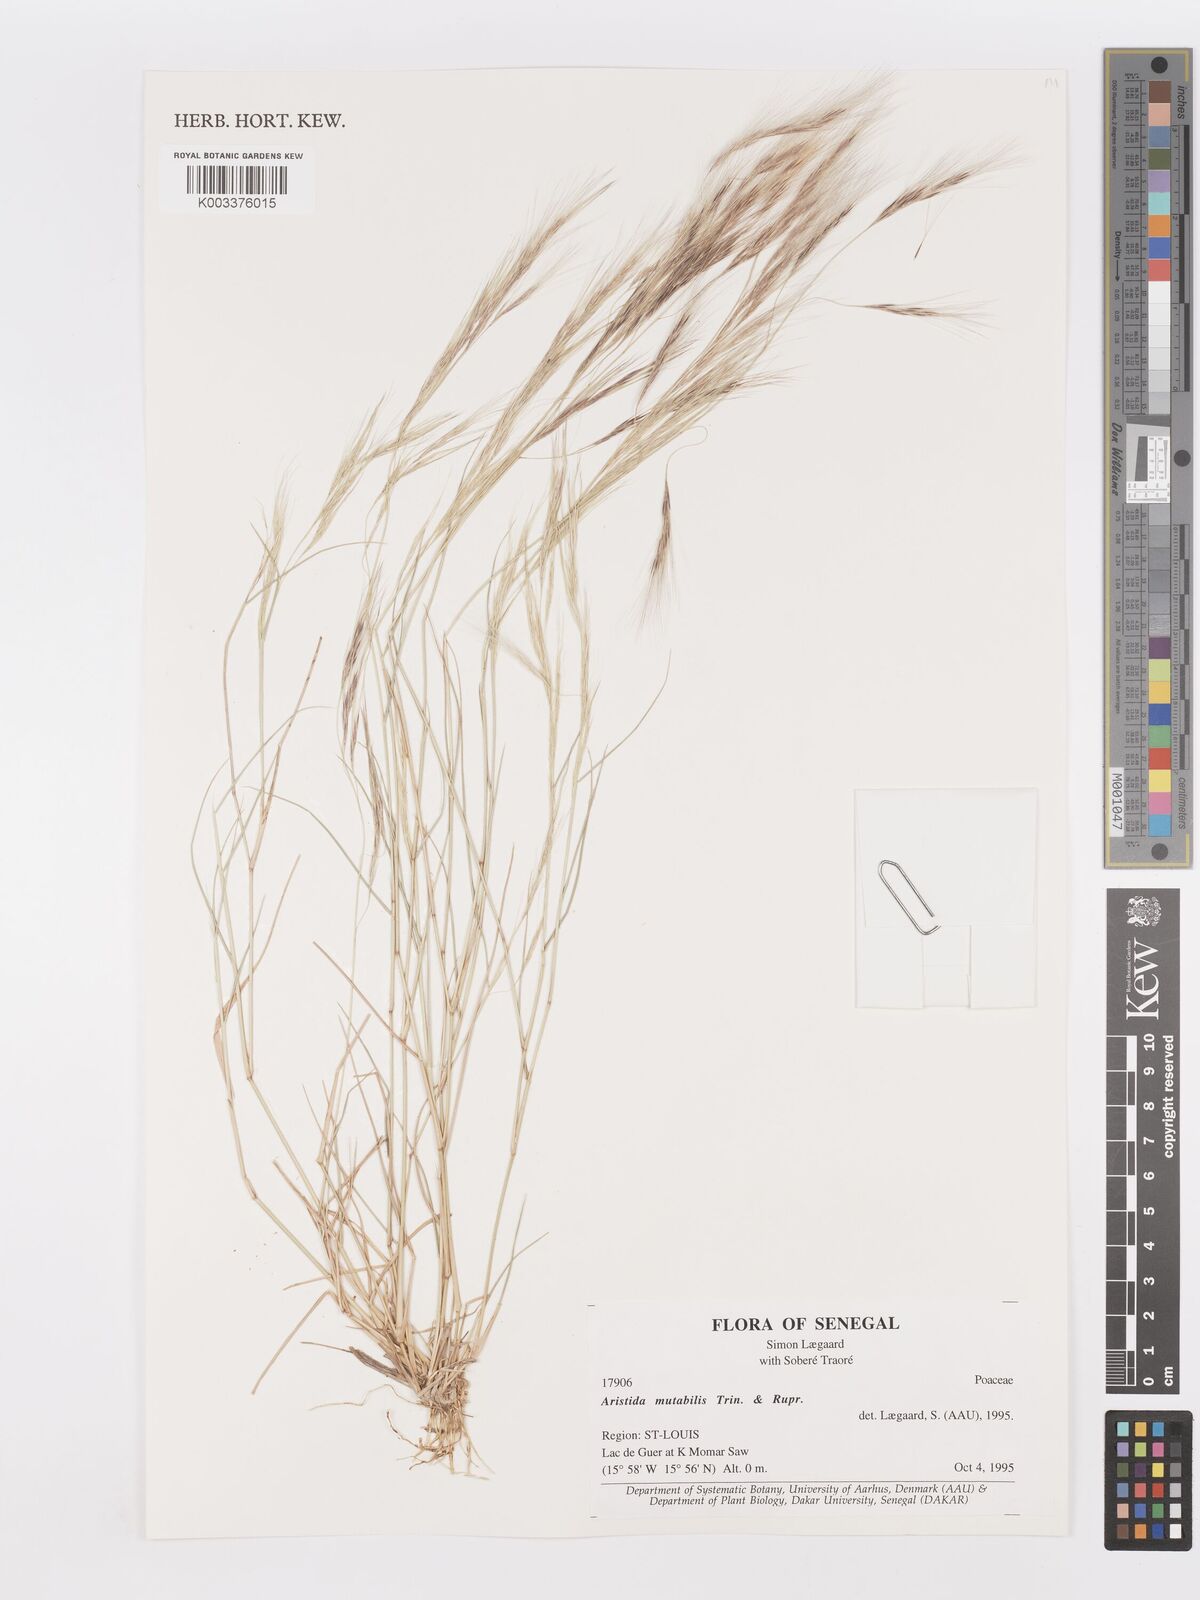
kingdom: Plantae
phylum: Tracheophyta
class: Liliopsida
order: Poales
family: Poaceae
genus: Aristida
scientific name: Aristida mutabilis
